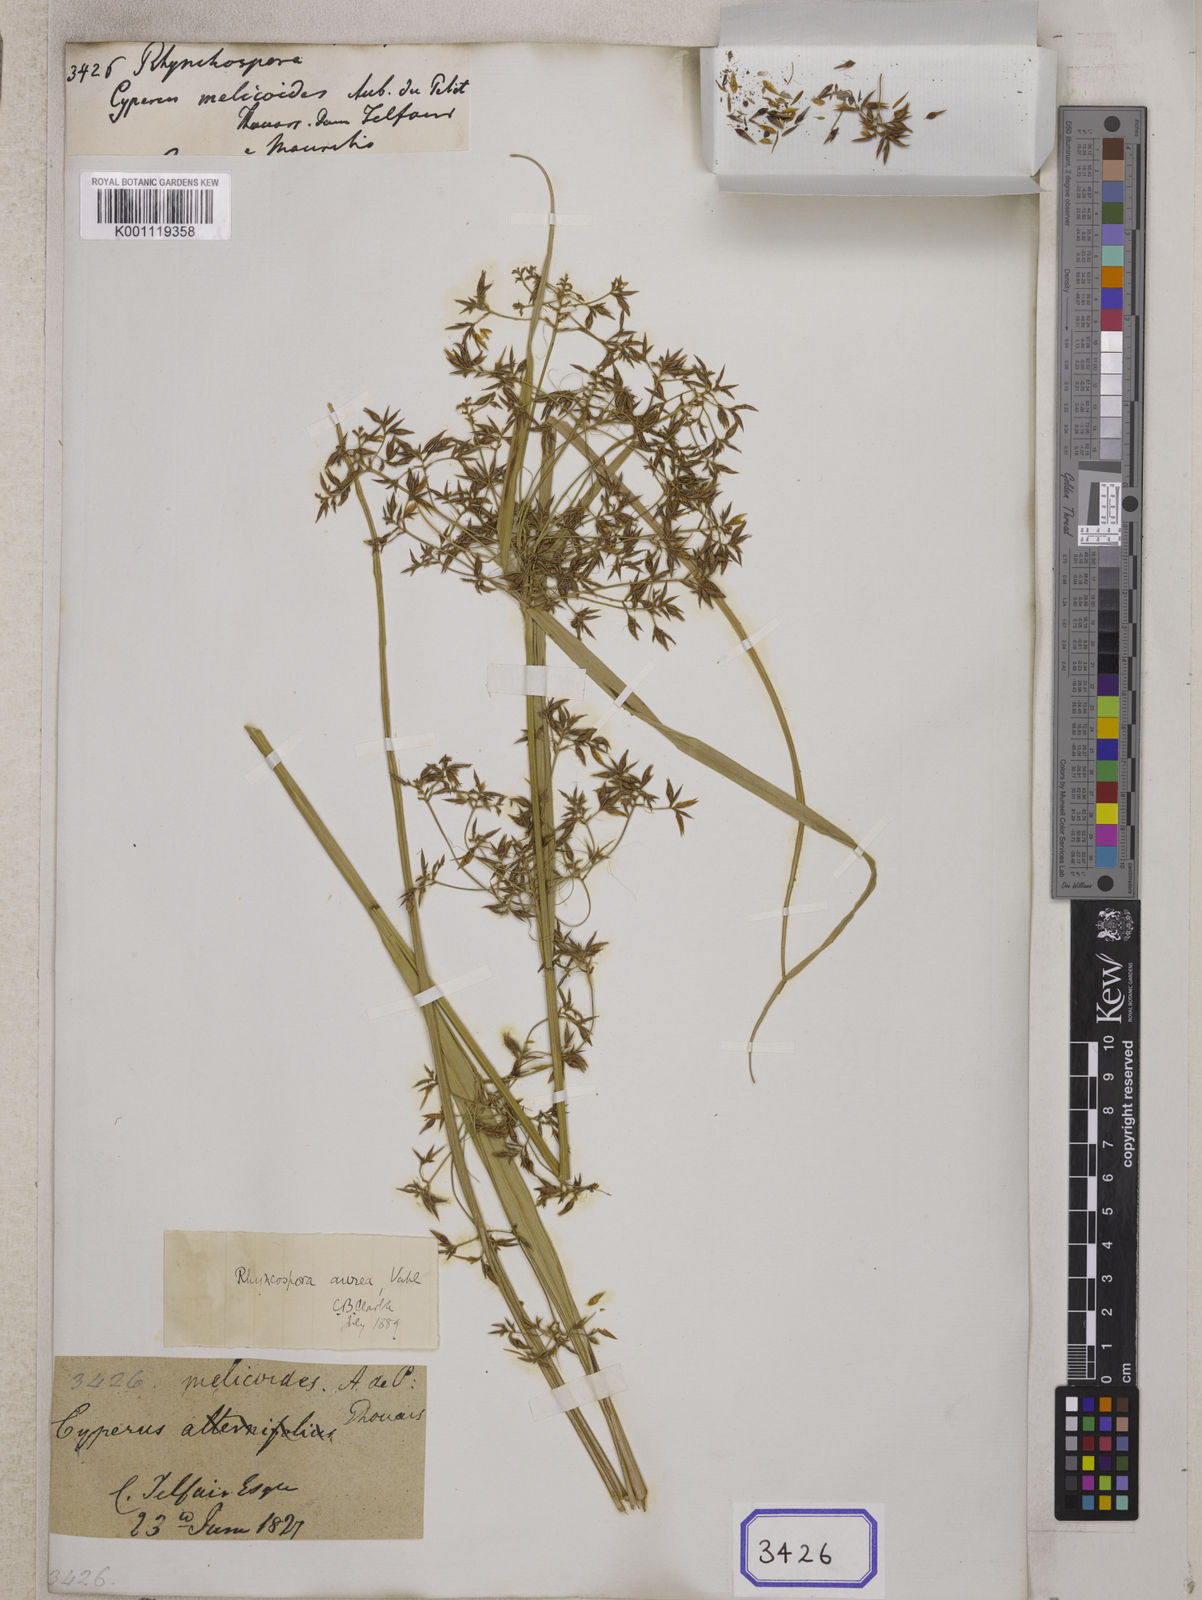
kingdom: Plantae
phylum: Tracheophyta
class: Liliopsida
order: Poales
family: Cyperaceae
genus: Rhynchospora
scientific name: Rhynchospora
